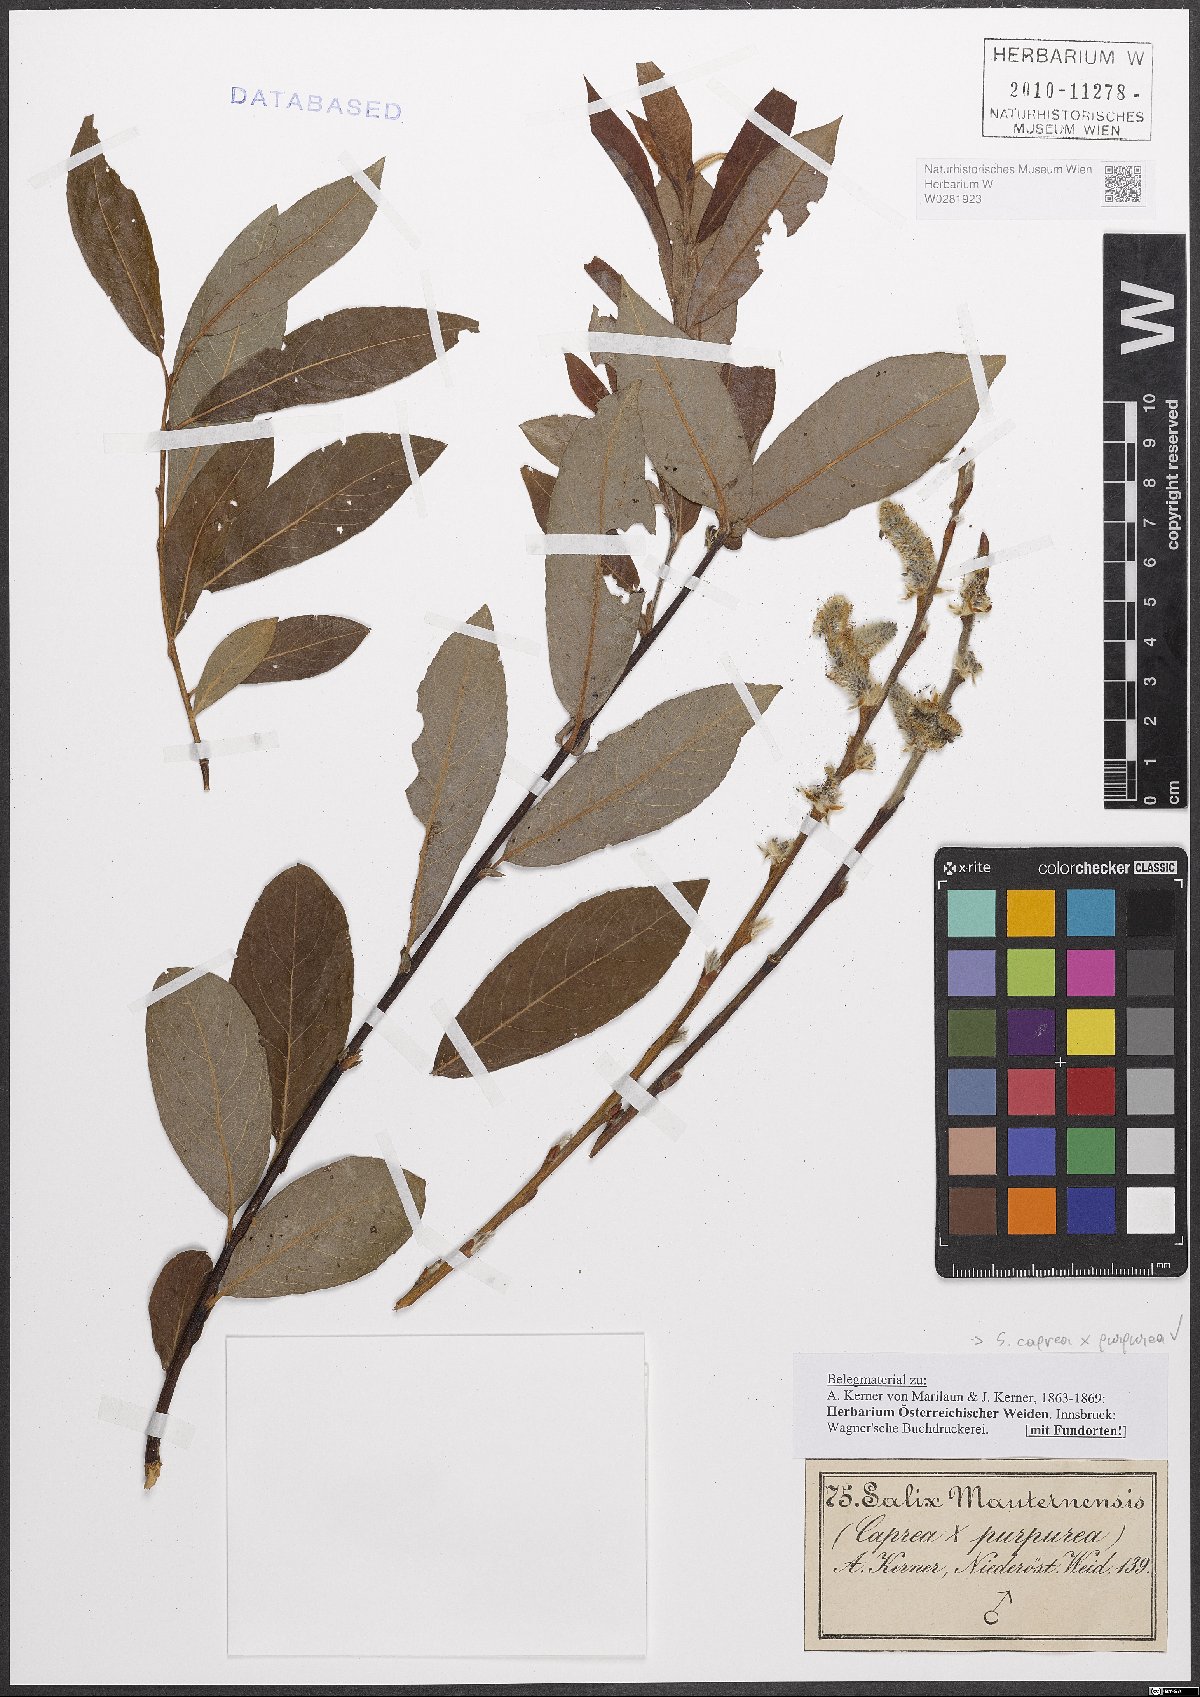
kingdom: Plantae
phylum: Tracheophyta
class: Magnoliopsida
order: Malpighiales
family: Salicaceae
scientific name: Salicaceae
